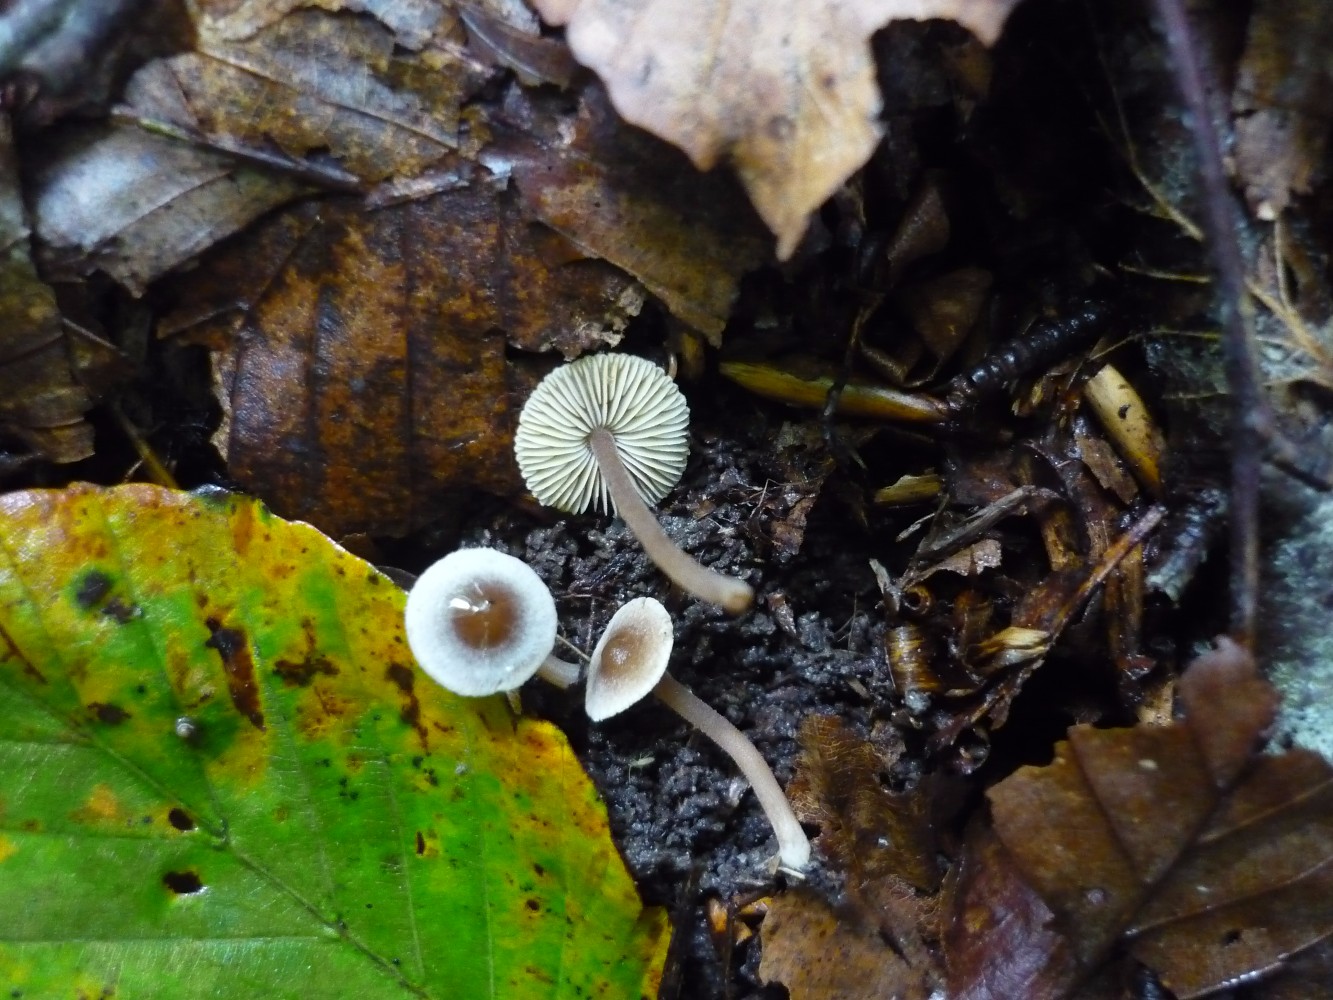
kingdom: Fungi
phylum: Basidiomycota
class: Agaricomycetes
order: Agaricales
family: Inocybaceae
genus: Inocybe
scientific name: Inocybe petiginosa
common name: liden trævlhat
